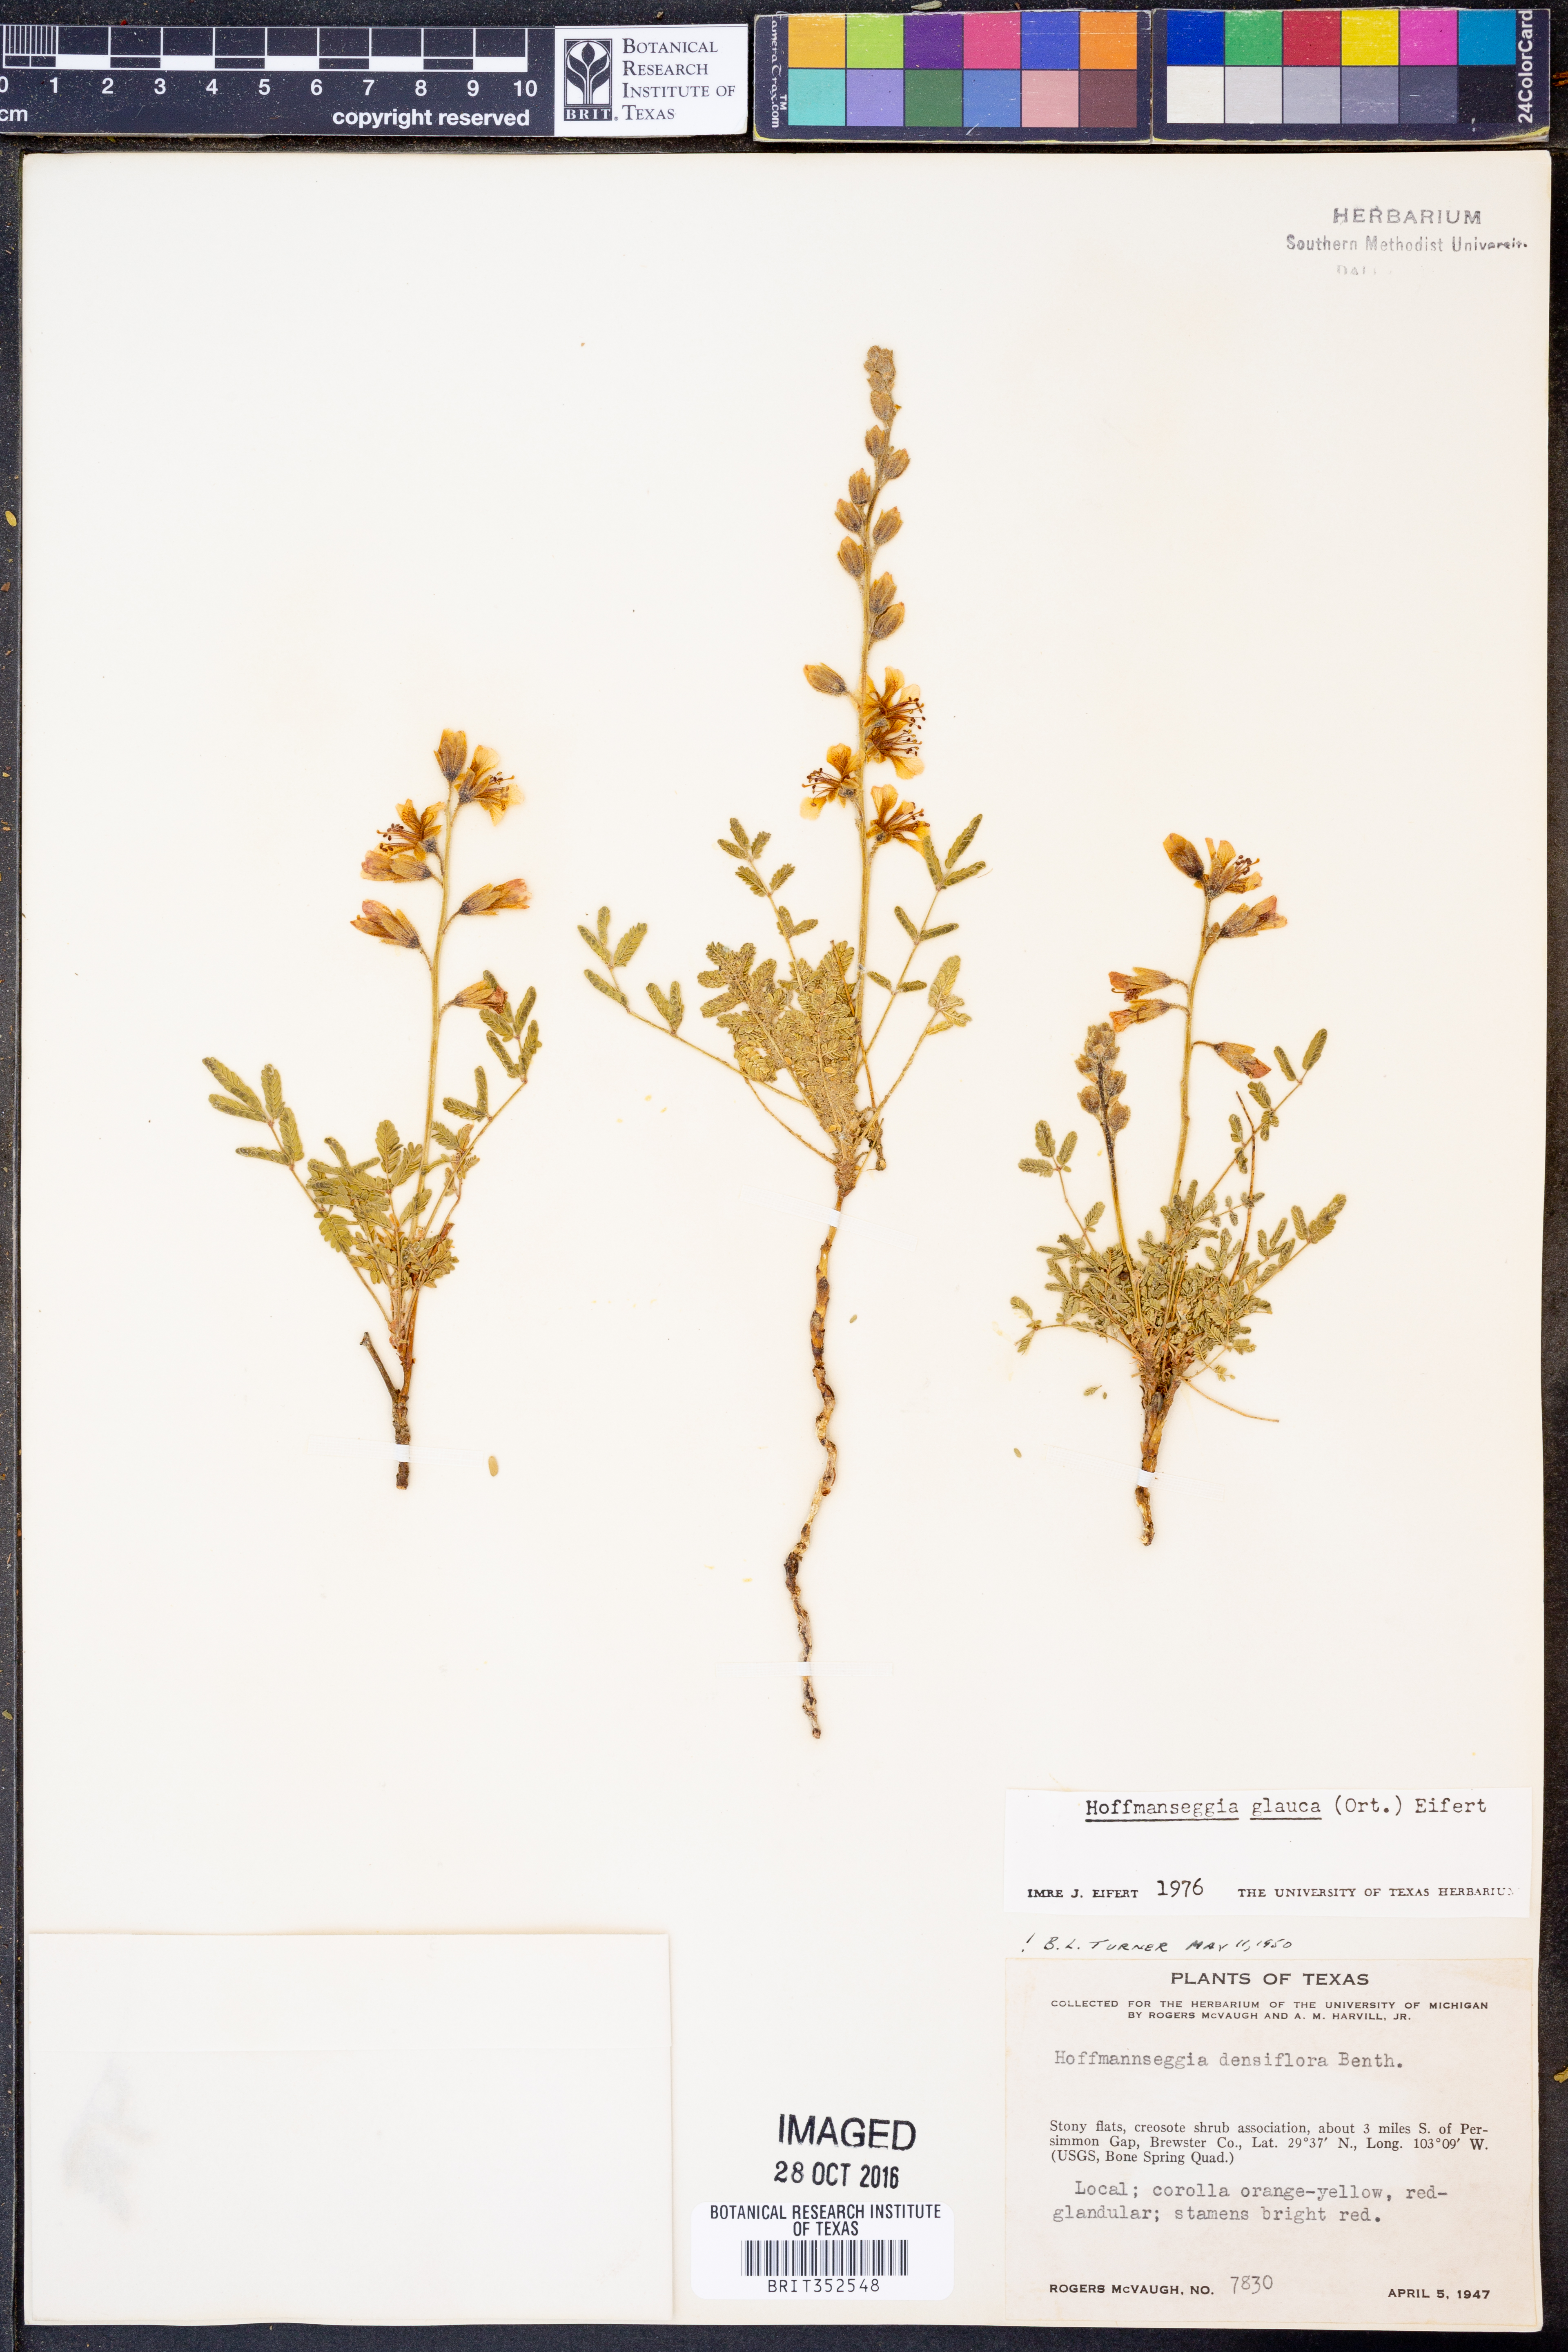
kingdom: Plantae
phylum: Tracheophyta
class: Magnoliopsida
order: Fabales
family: Fabaceae
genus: Hoffmannseggia
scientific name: Hoffmannseggia glauca
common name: Pignut
